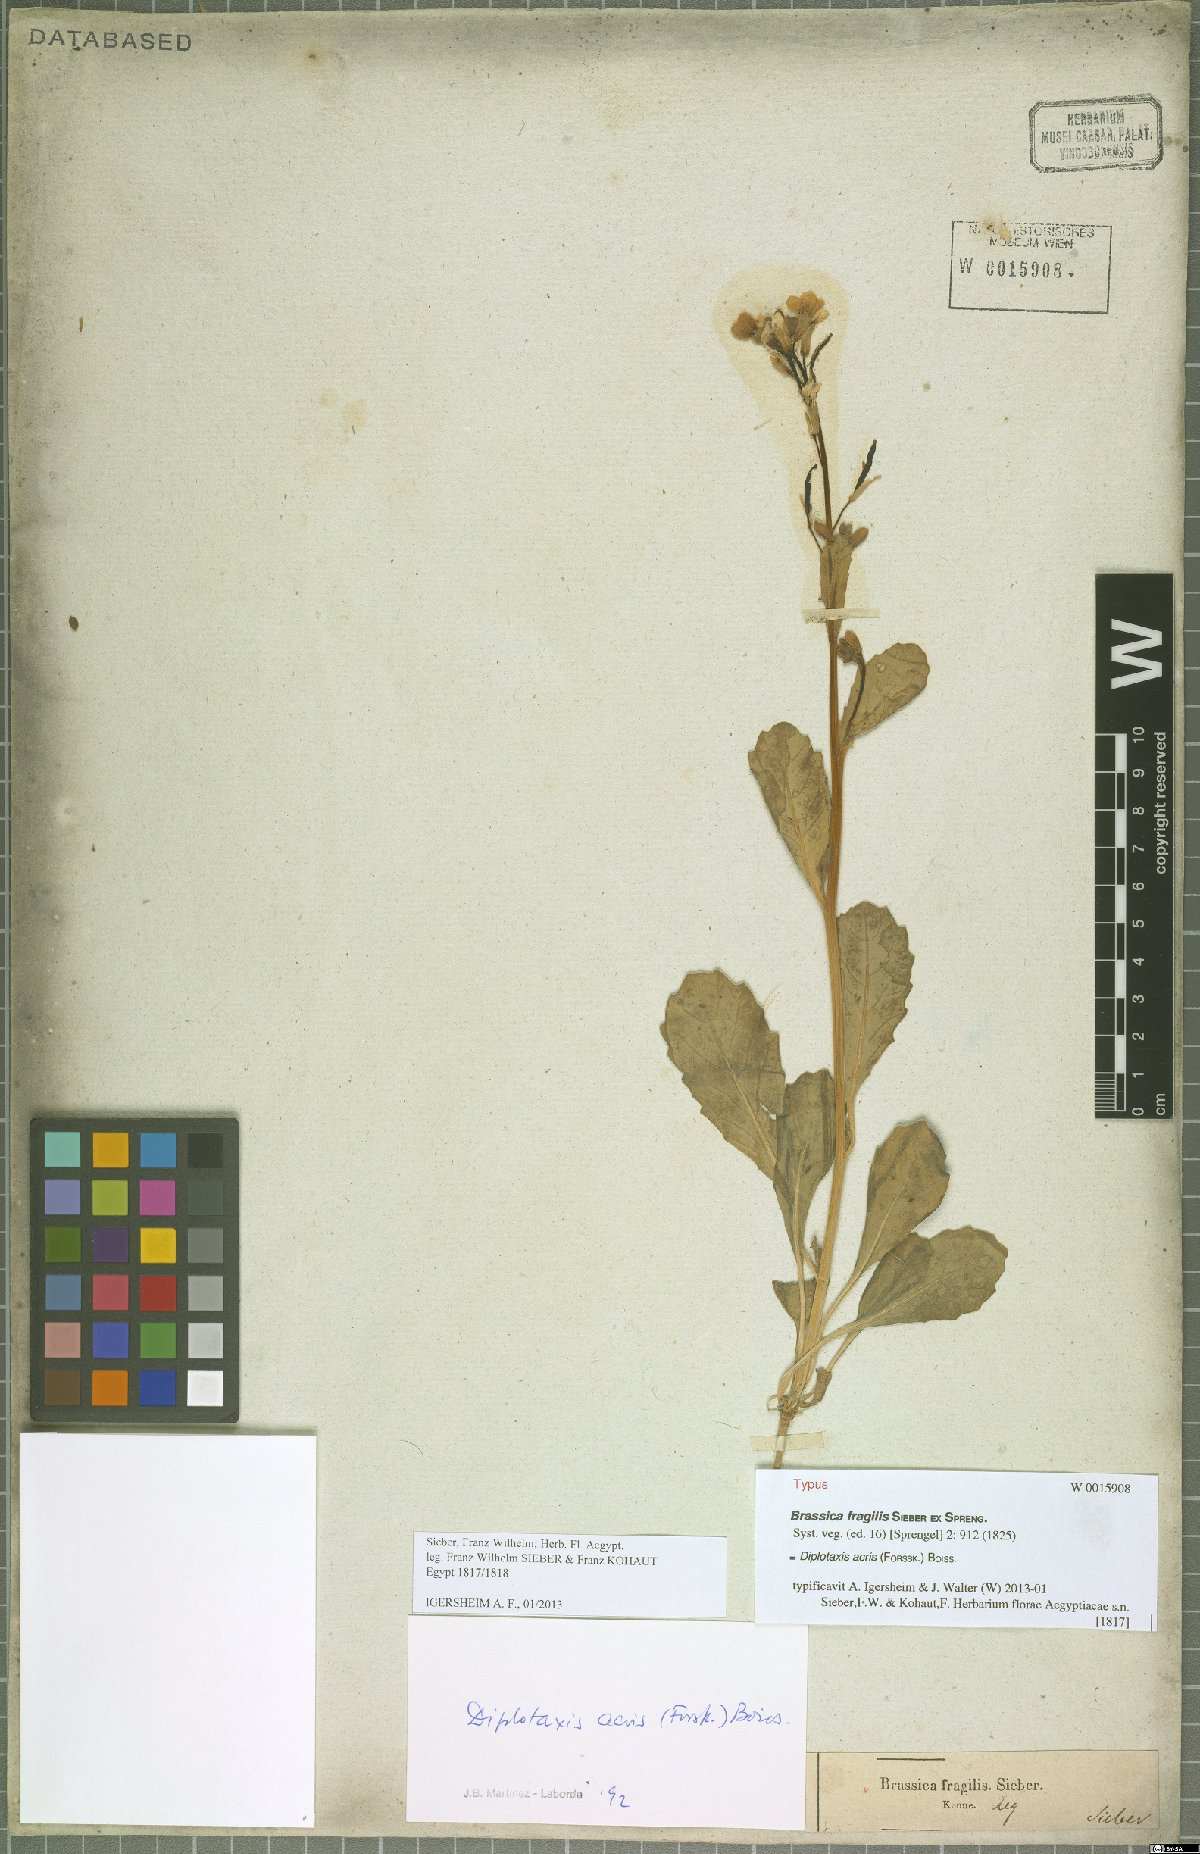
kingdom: Plantae
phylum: Tracheophyta
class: Magnoliopsida
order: Brassicales
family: Brassicaceae
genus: Diplotaxis
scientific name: Diplotaxis acris
